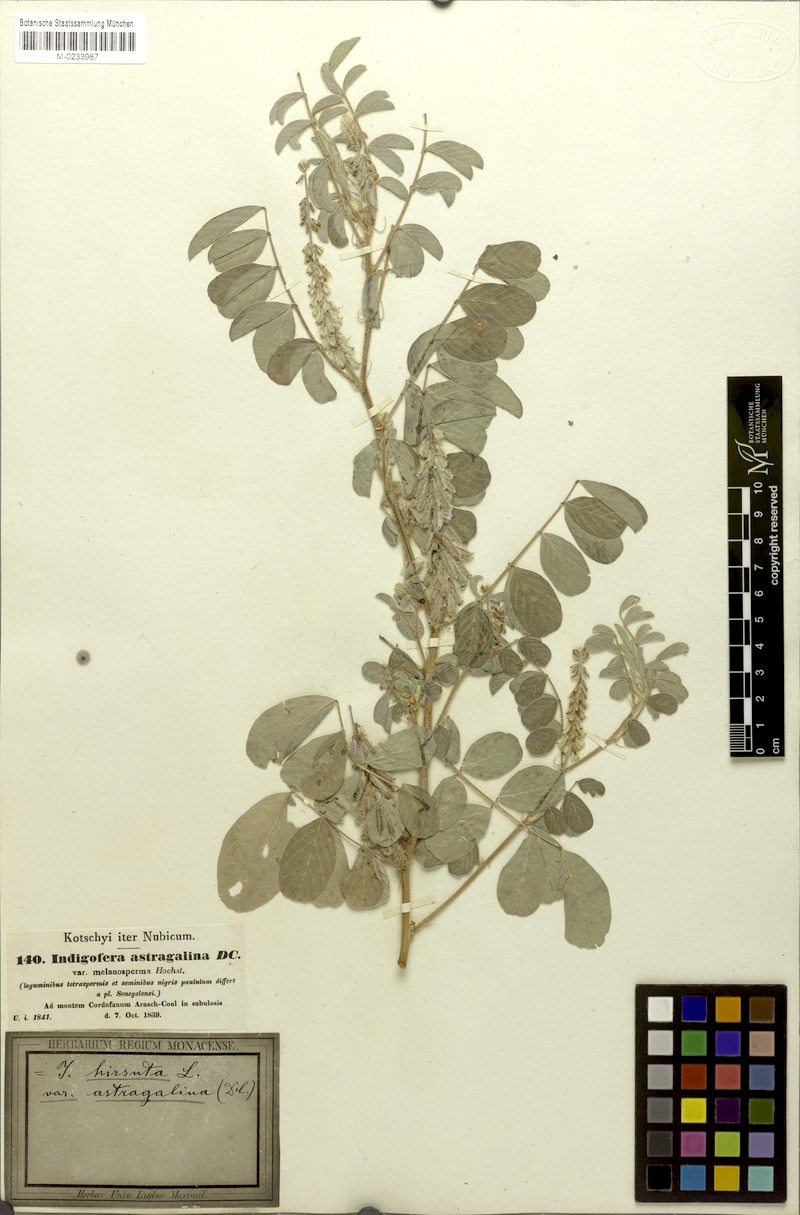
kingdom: Plantae
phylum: Tracheophyta
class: Magnoliopsida
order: Fabales
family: Fabaceae
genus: Indigofera
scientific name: Indigofera astragalina
